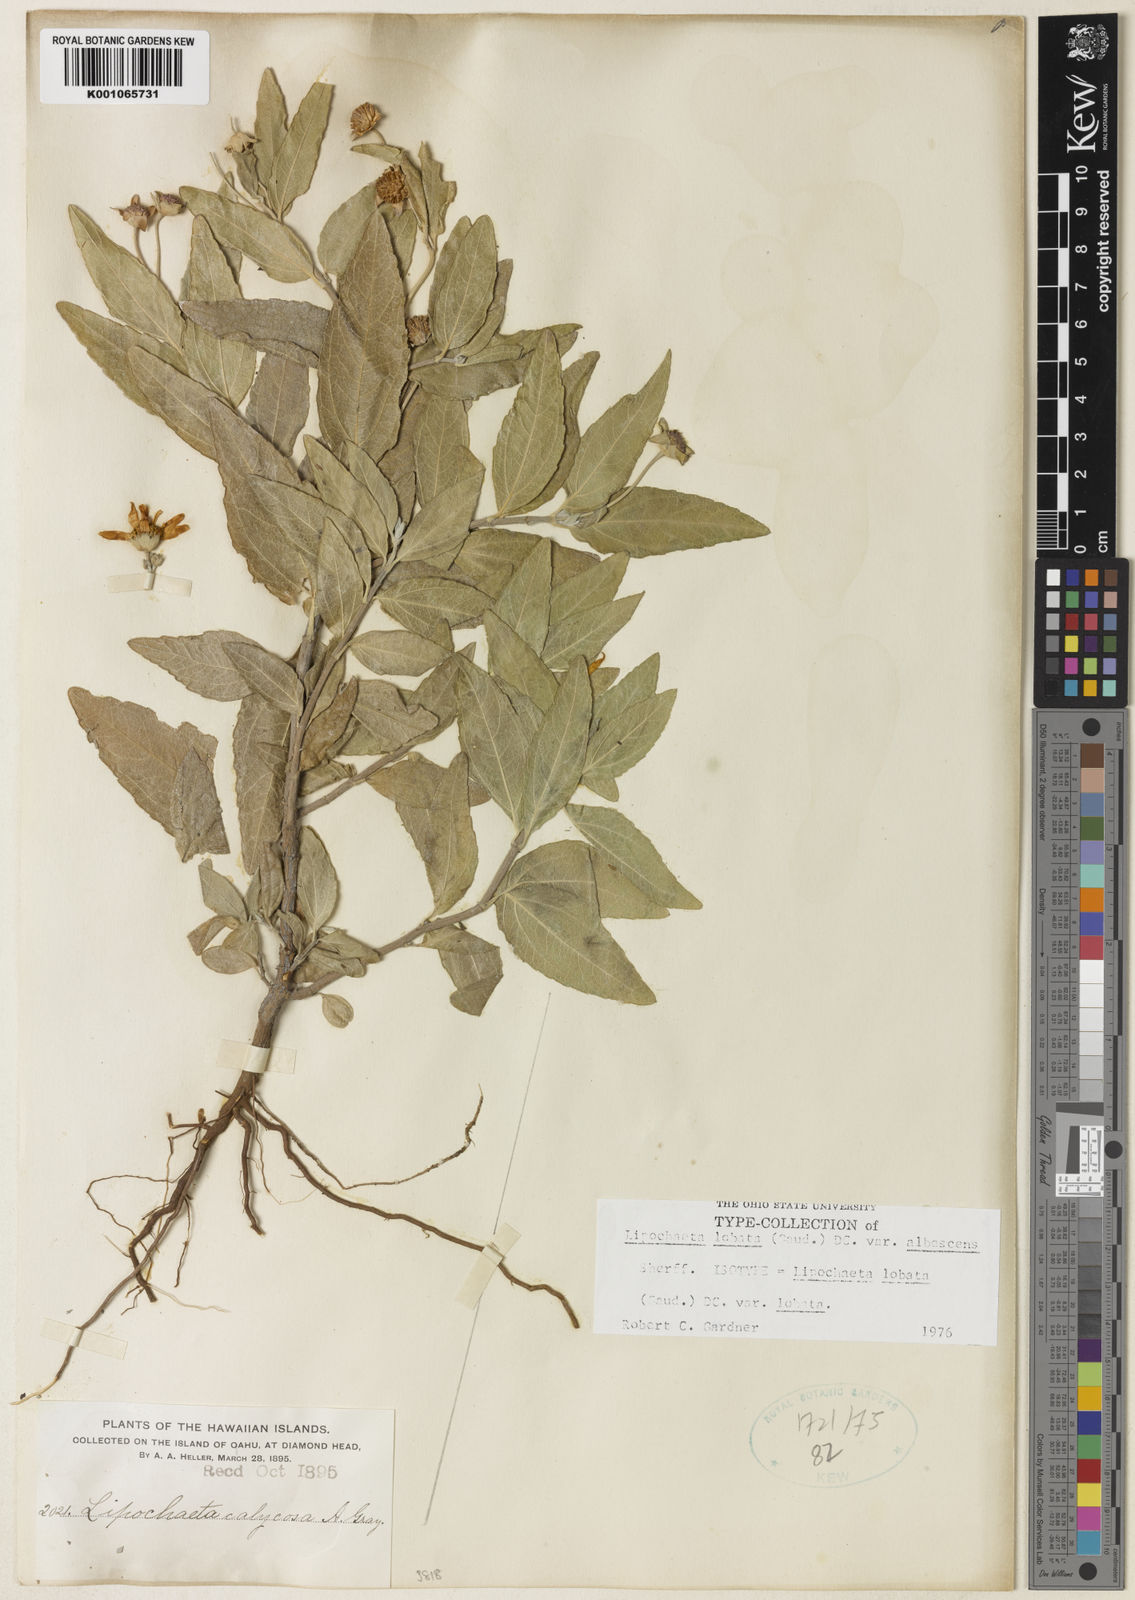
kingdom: Plantae
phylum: Tracheophyta
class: Magnoliopsida
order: Asterales
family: Asteraceae
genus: Lipochaeta
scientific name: Lipochaeta lobata
